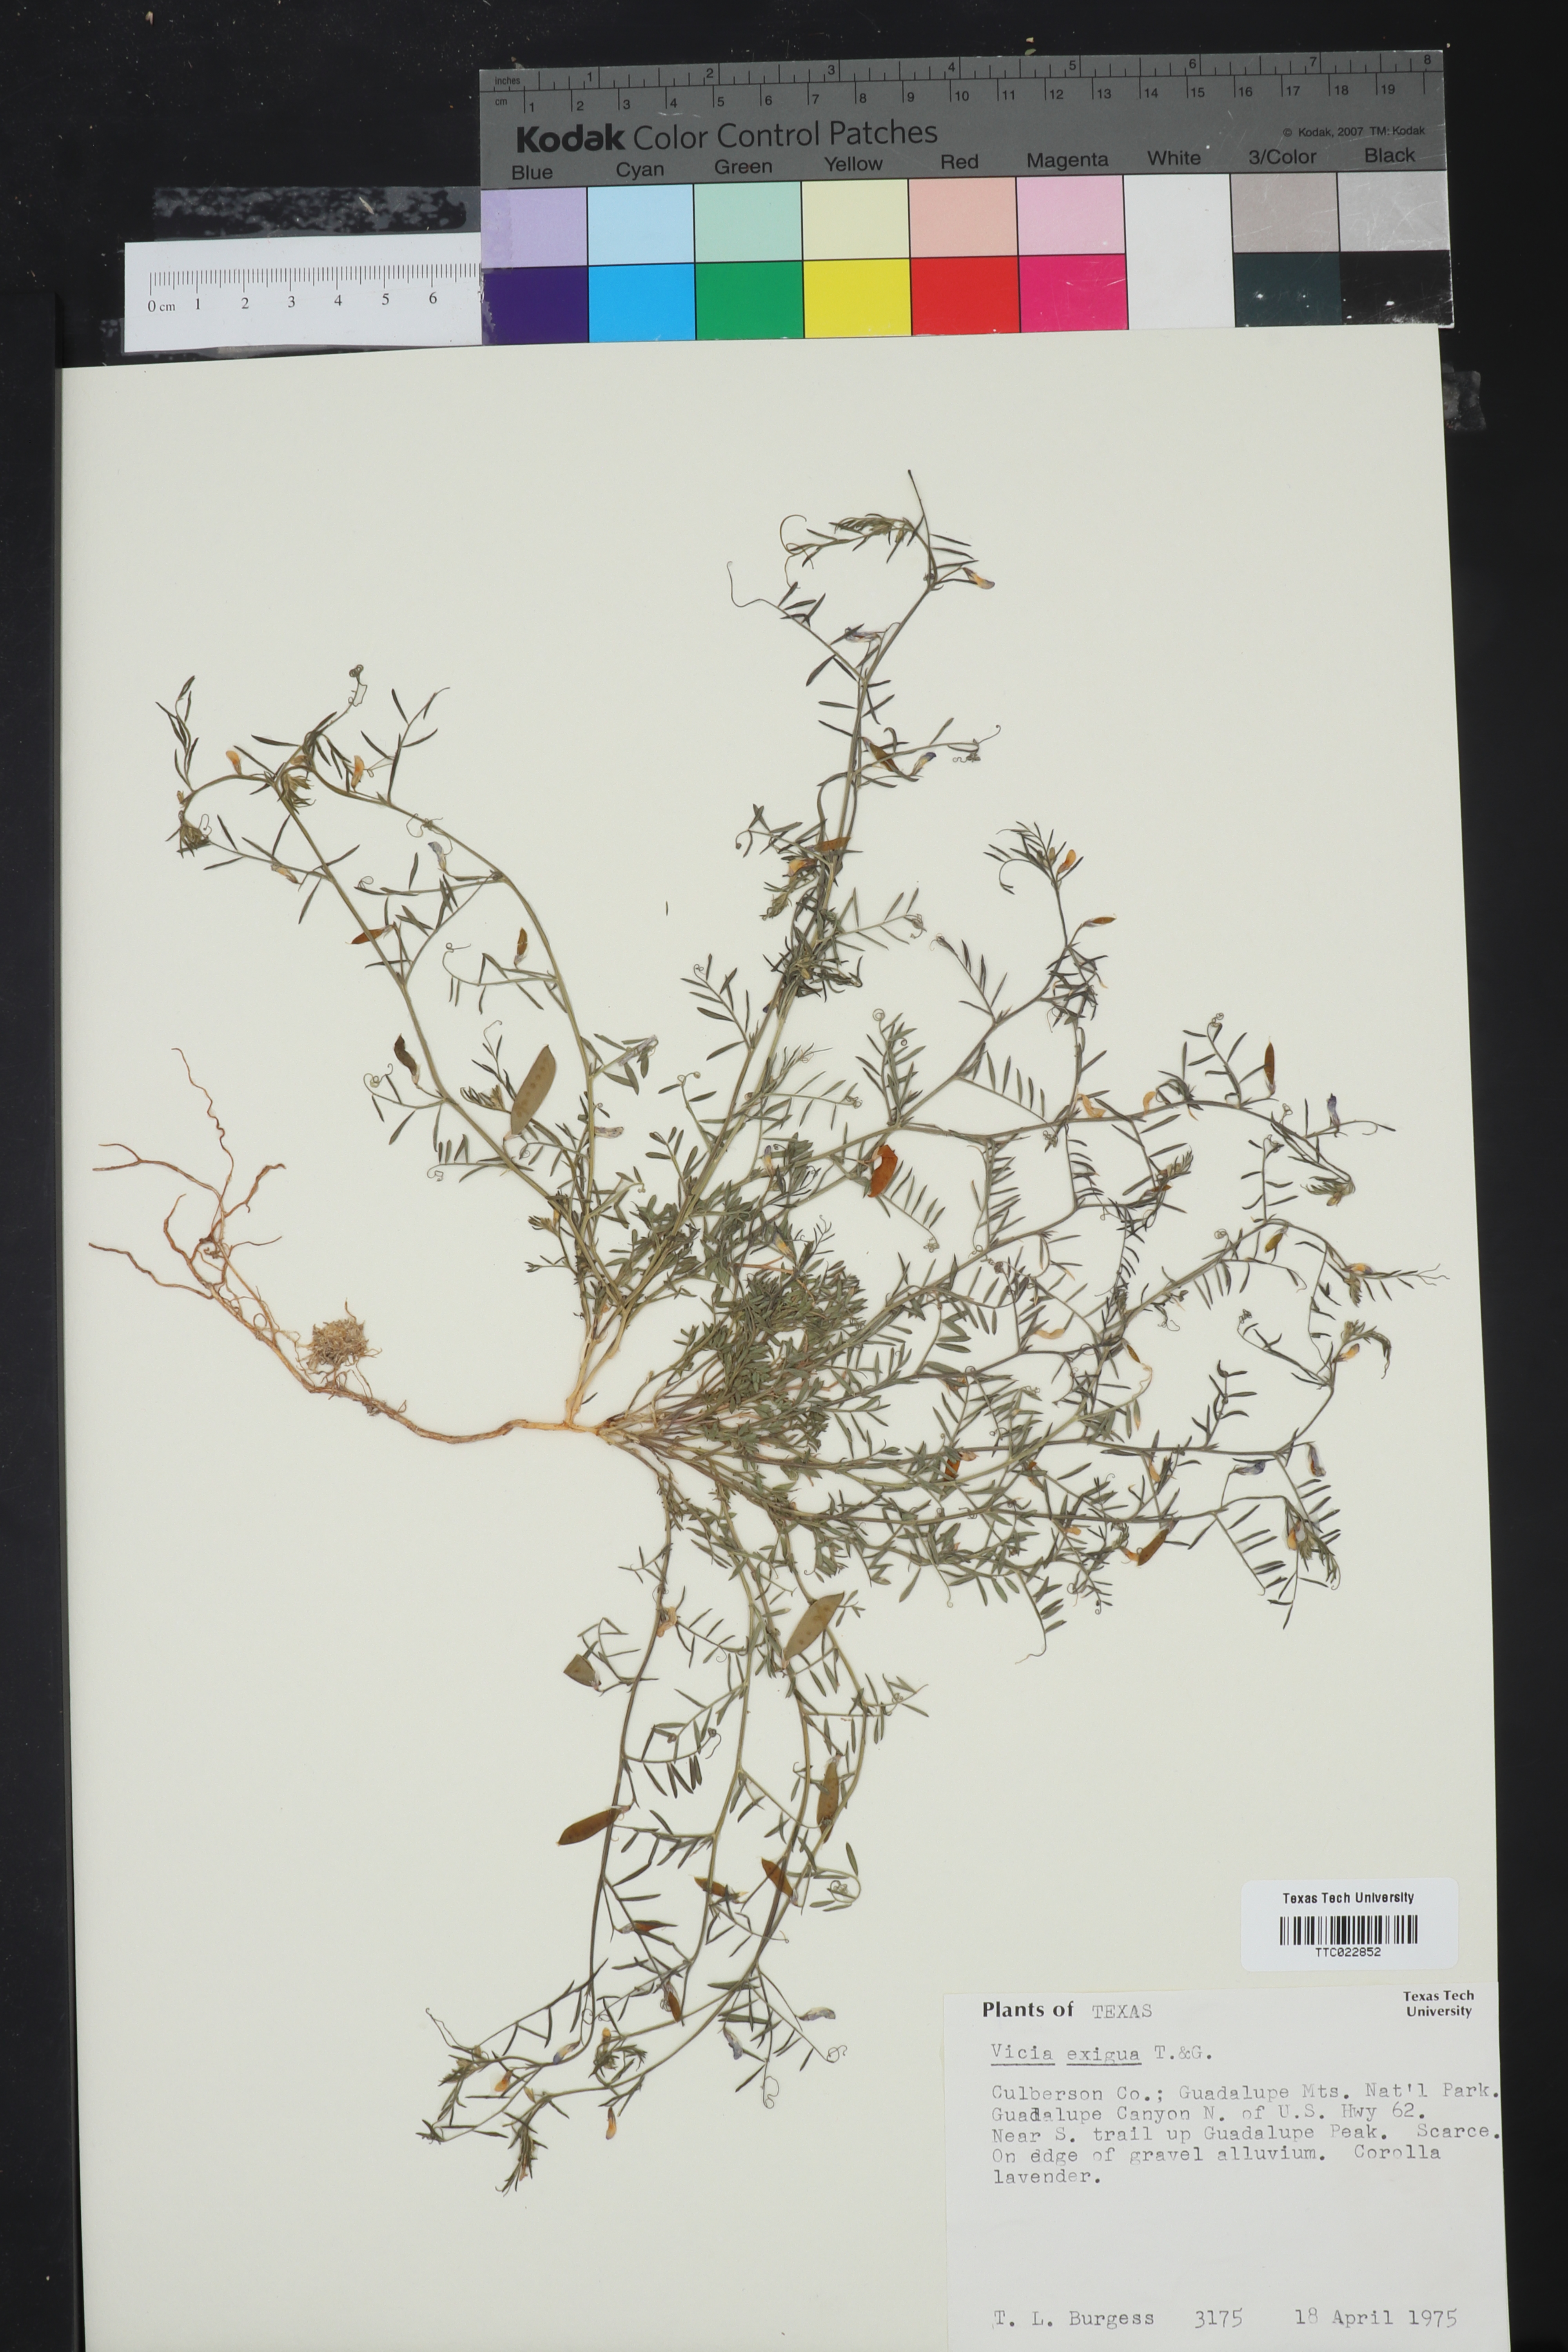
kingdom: Plantae
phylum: Tracheophyta
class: Magnoliopsida
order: Fabales
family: Fabaceae
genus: Vicia
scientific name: Vicia ludoviciana
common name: Louisiana vetch
